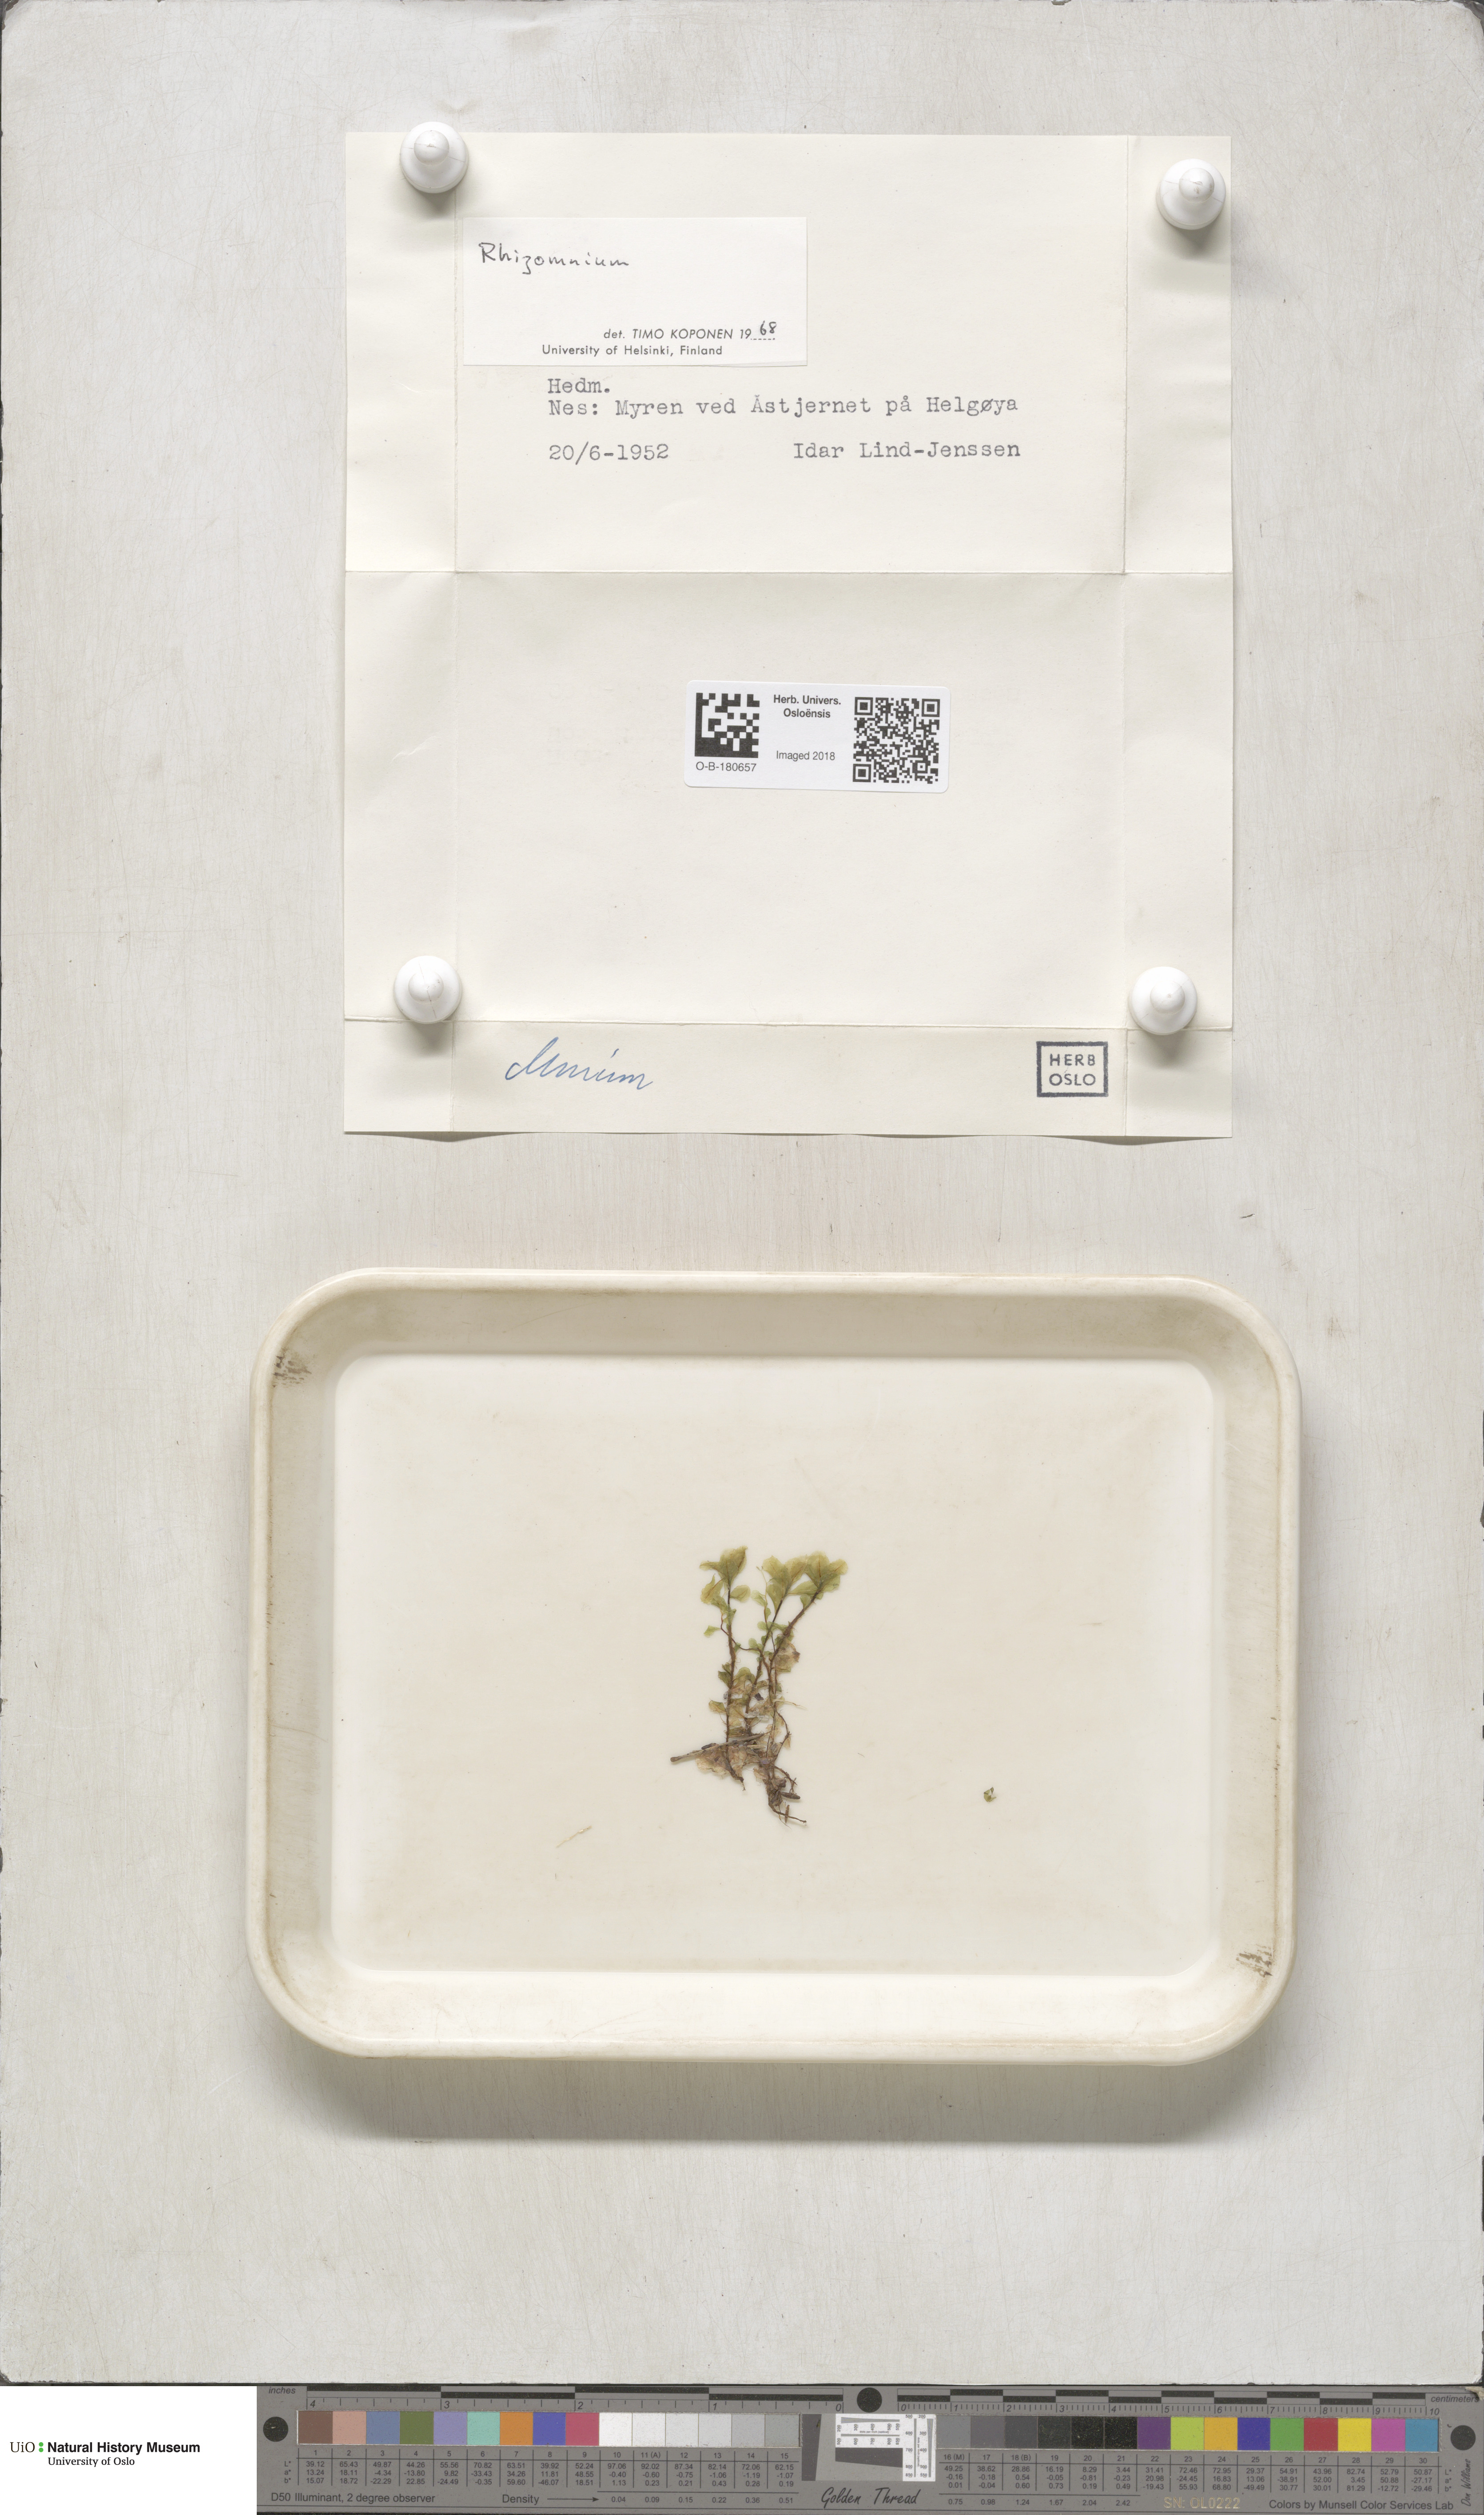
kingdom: Plantae
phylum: Bryophyta
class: Bryopsida
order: Bryales
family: Mniaceae
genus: Rhizomnium
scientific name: Rhizomnium
